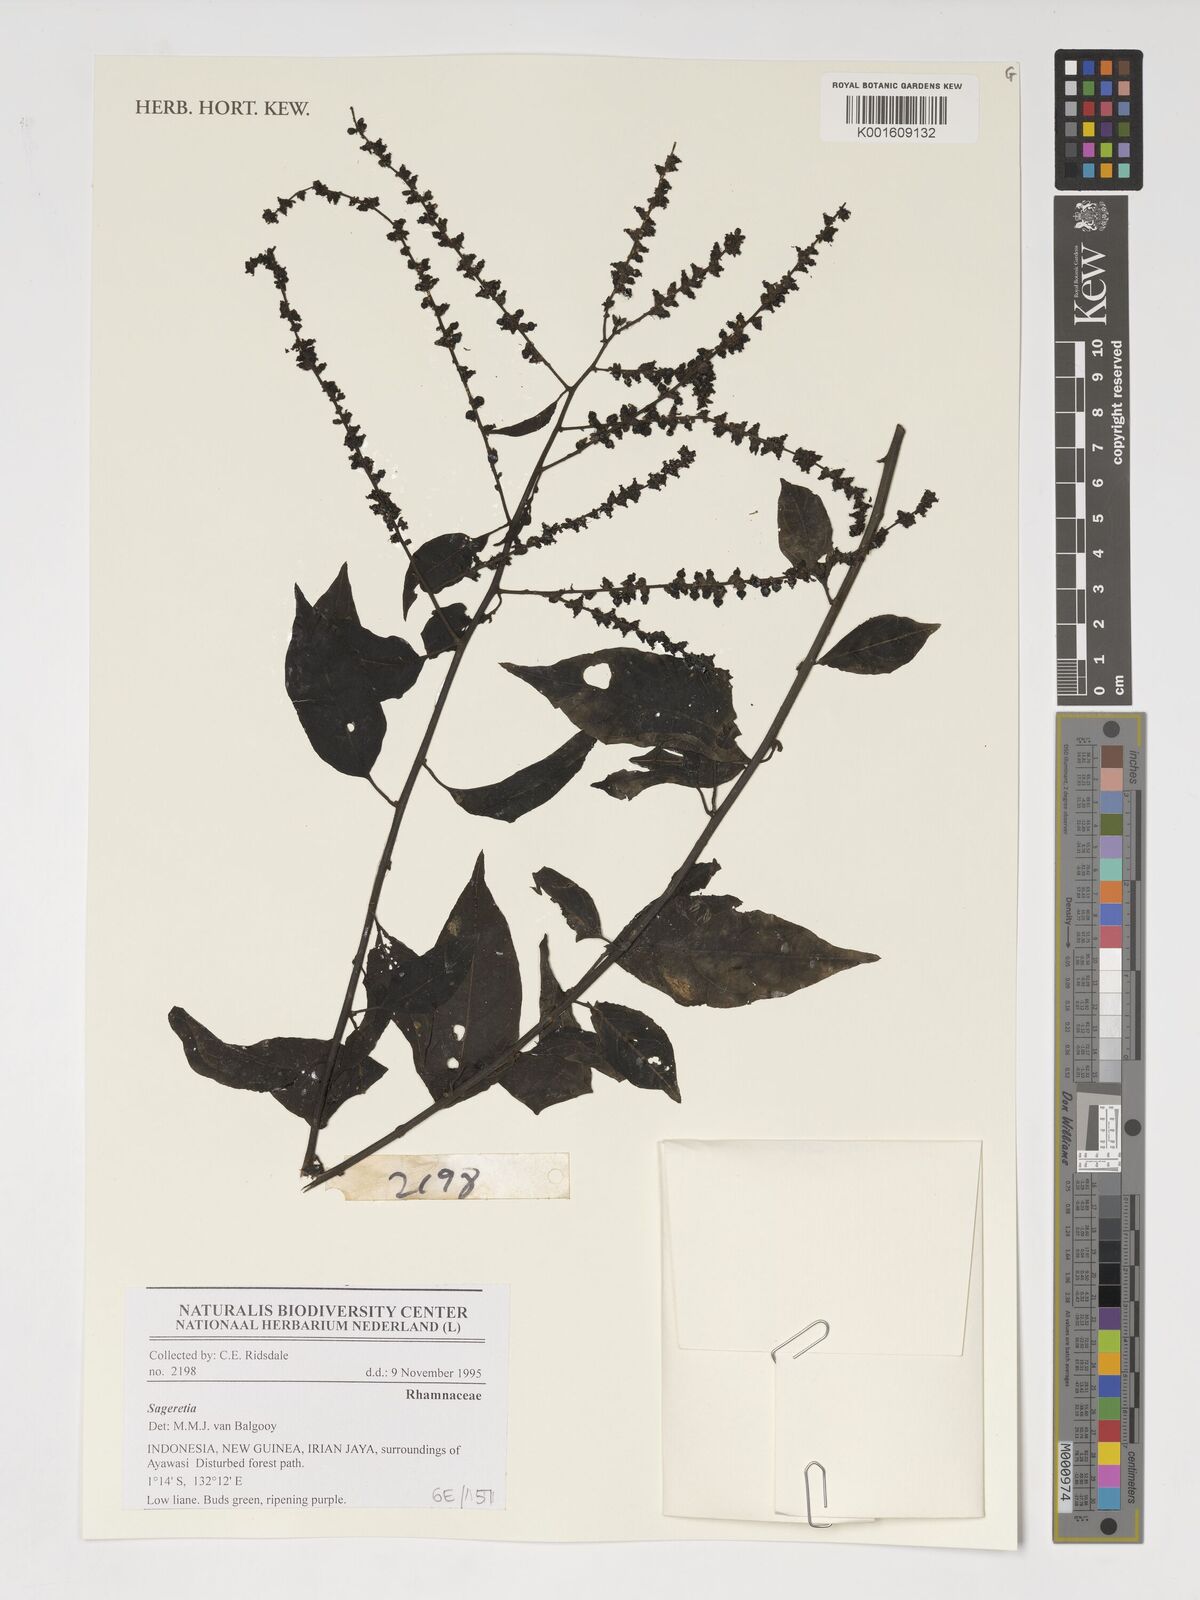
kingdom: Plantae
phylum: Tracheophyta
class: Magnoliopsida
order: Rosales
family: Rhamnaceae
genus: Sageretia
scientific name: Sageretia
